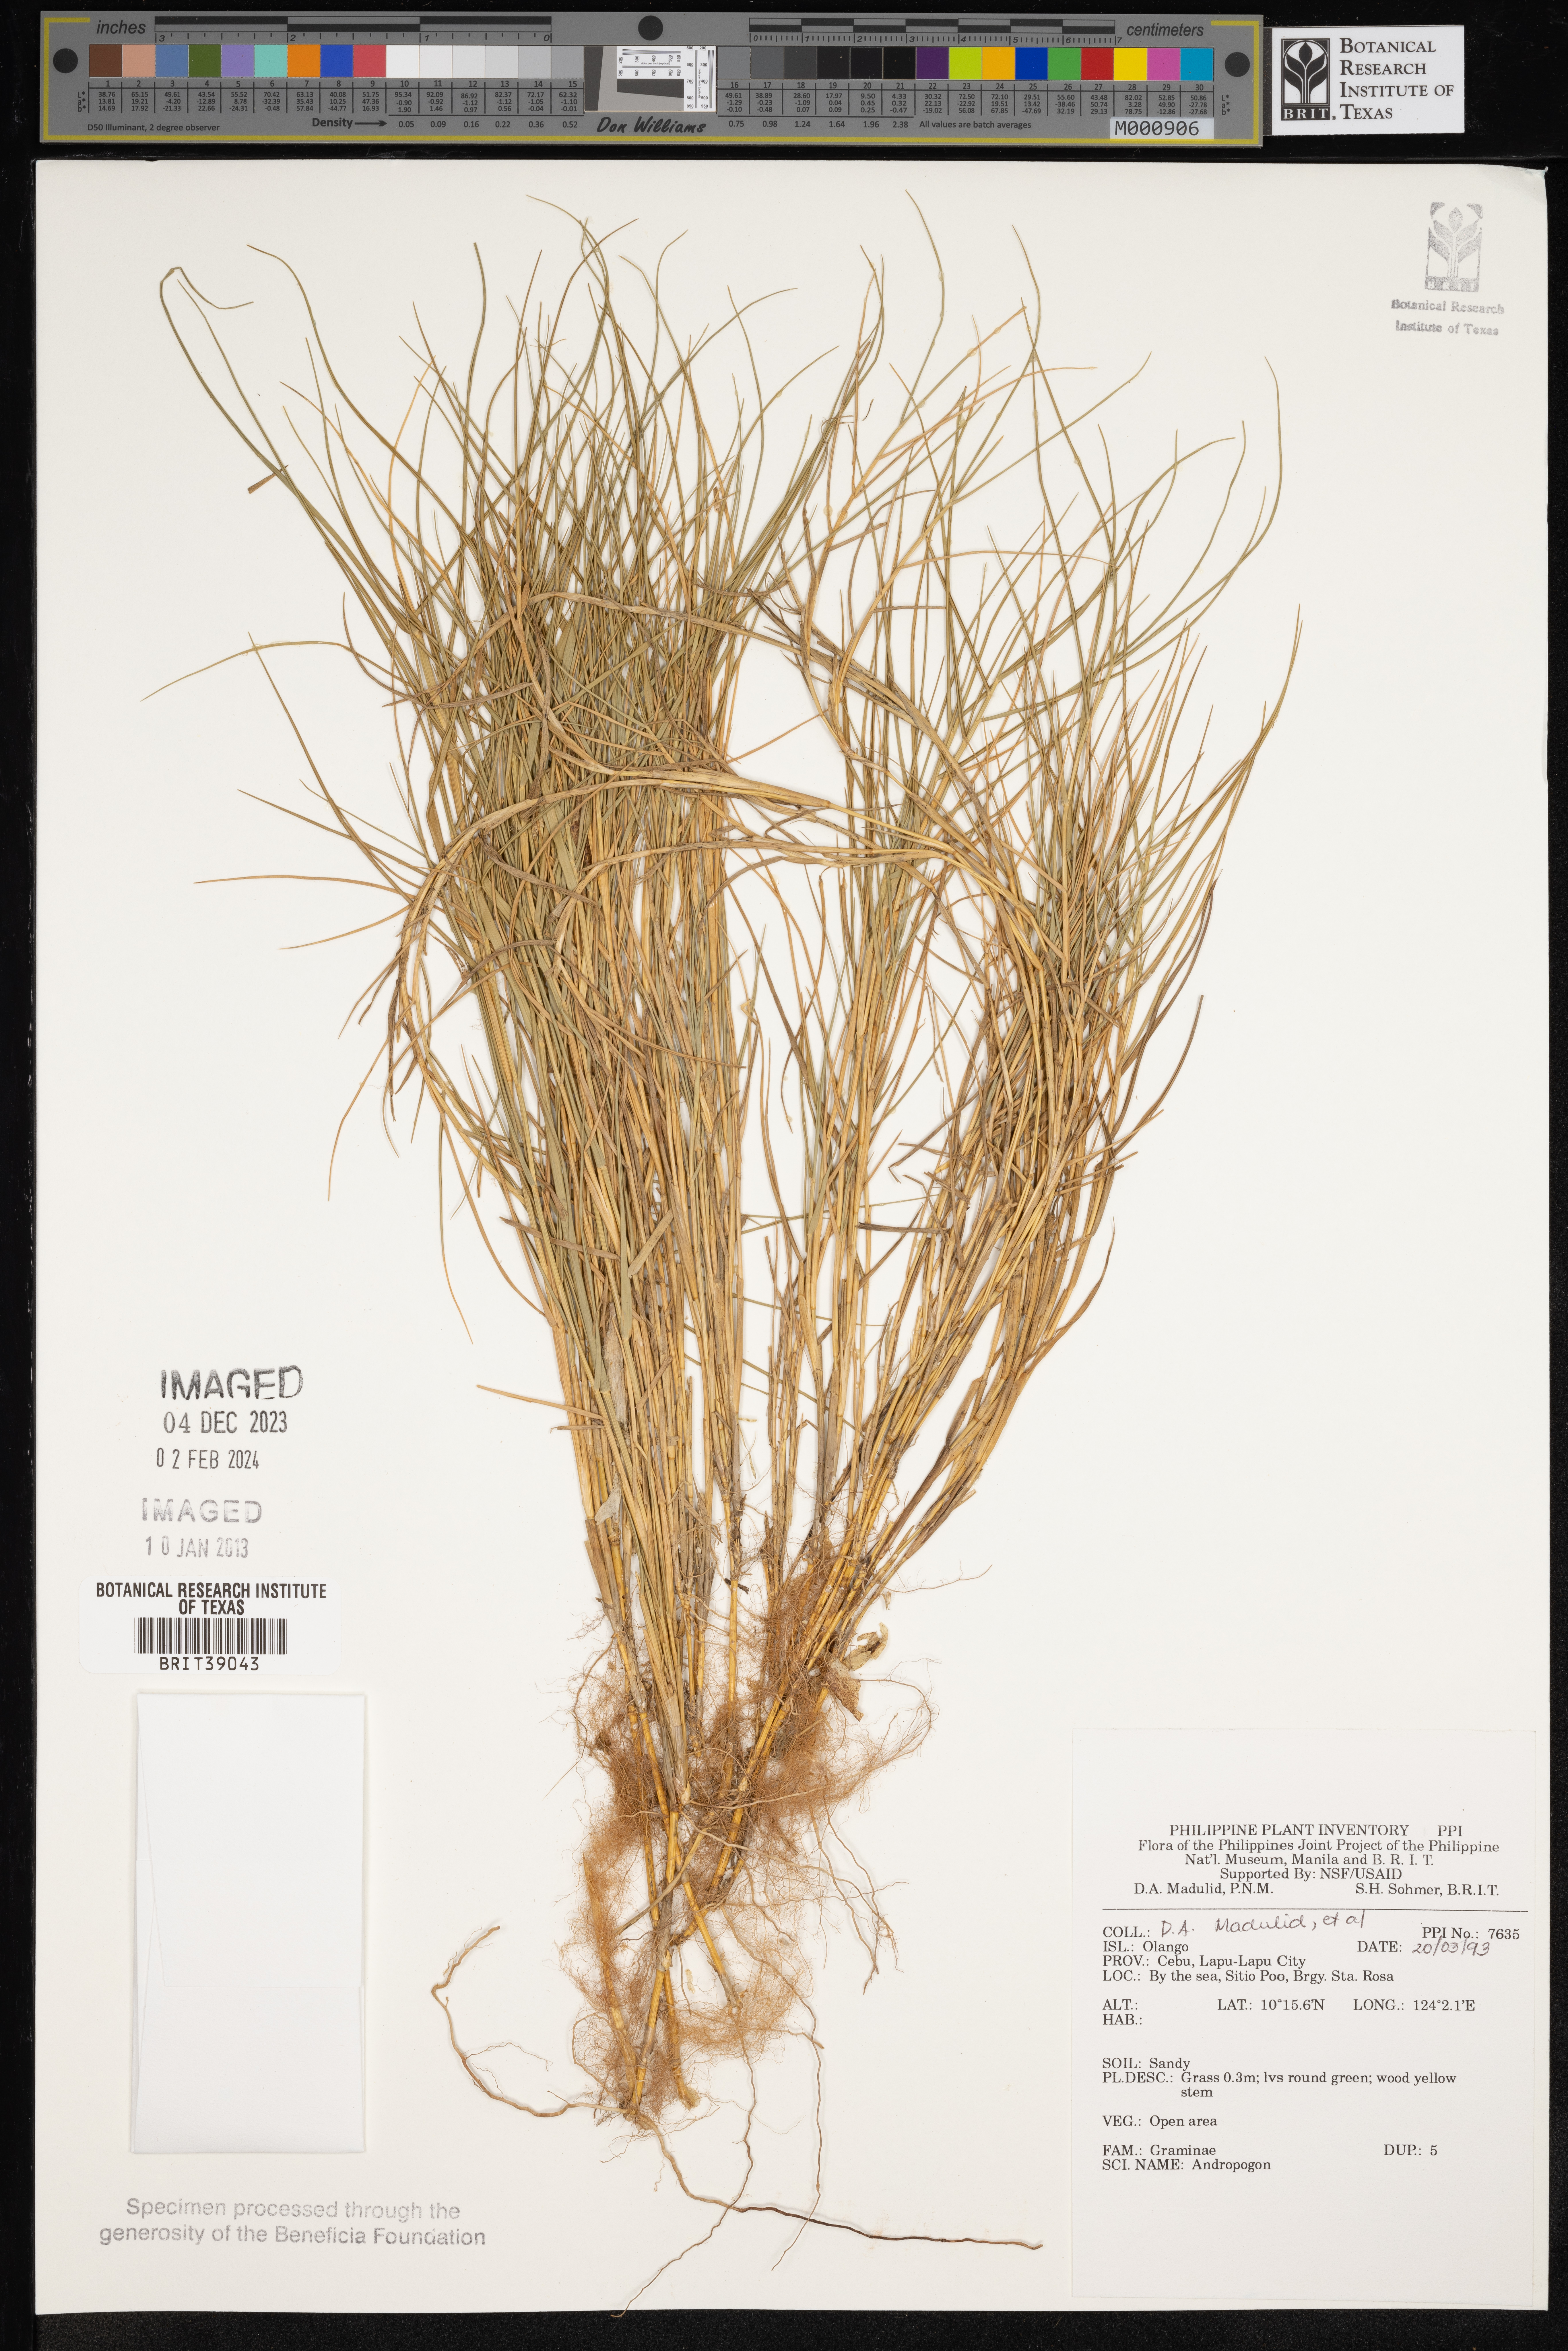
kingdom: Plantae
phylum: Tracheophyta
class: Liliopsida
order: Poales
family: Poaceae
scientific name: Poaceae
